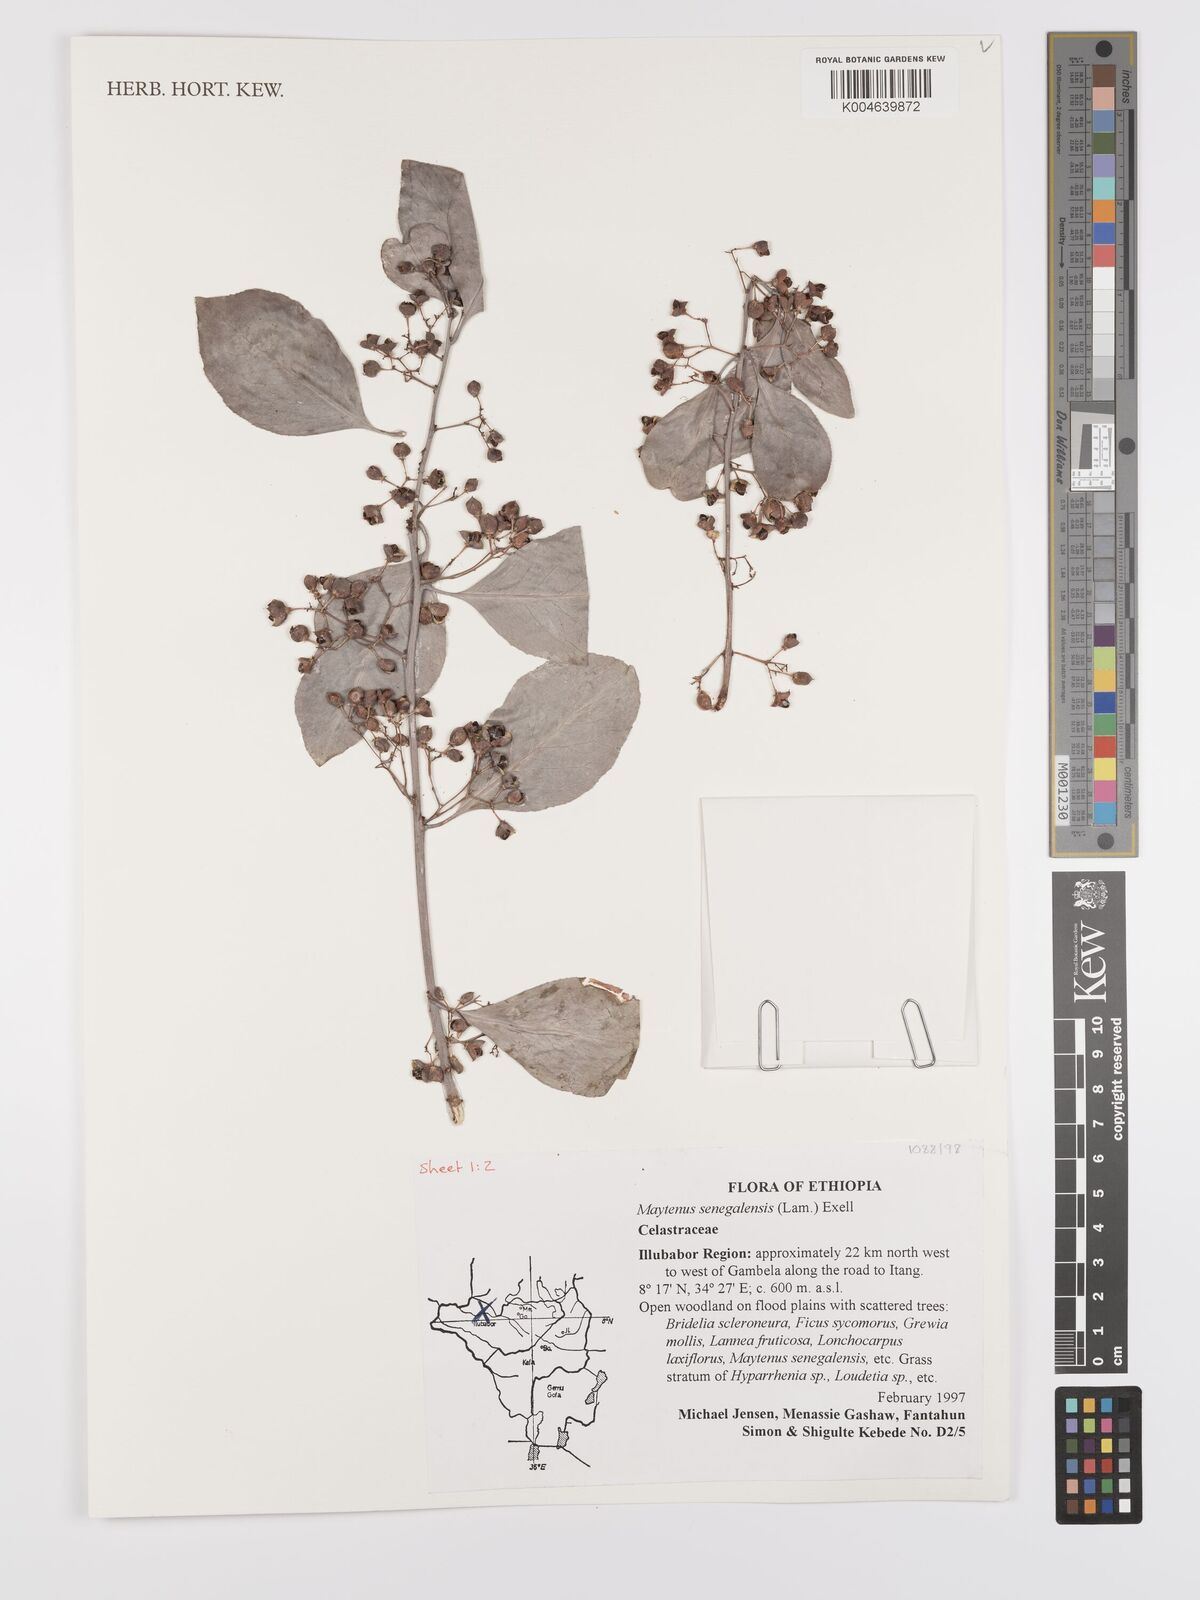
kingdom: Plantae
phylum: Tracheophyta
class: Magnoliopsida
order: Celastrales
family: Celastraceae
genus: Gymnosporia
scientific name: Gymnosporia senegalensis
